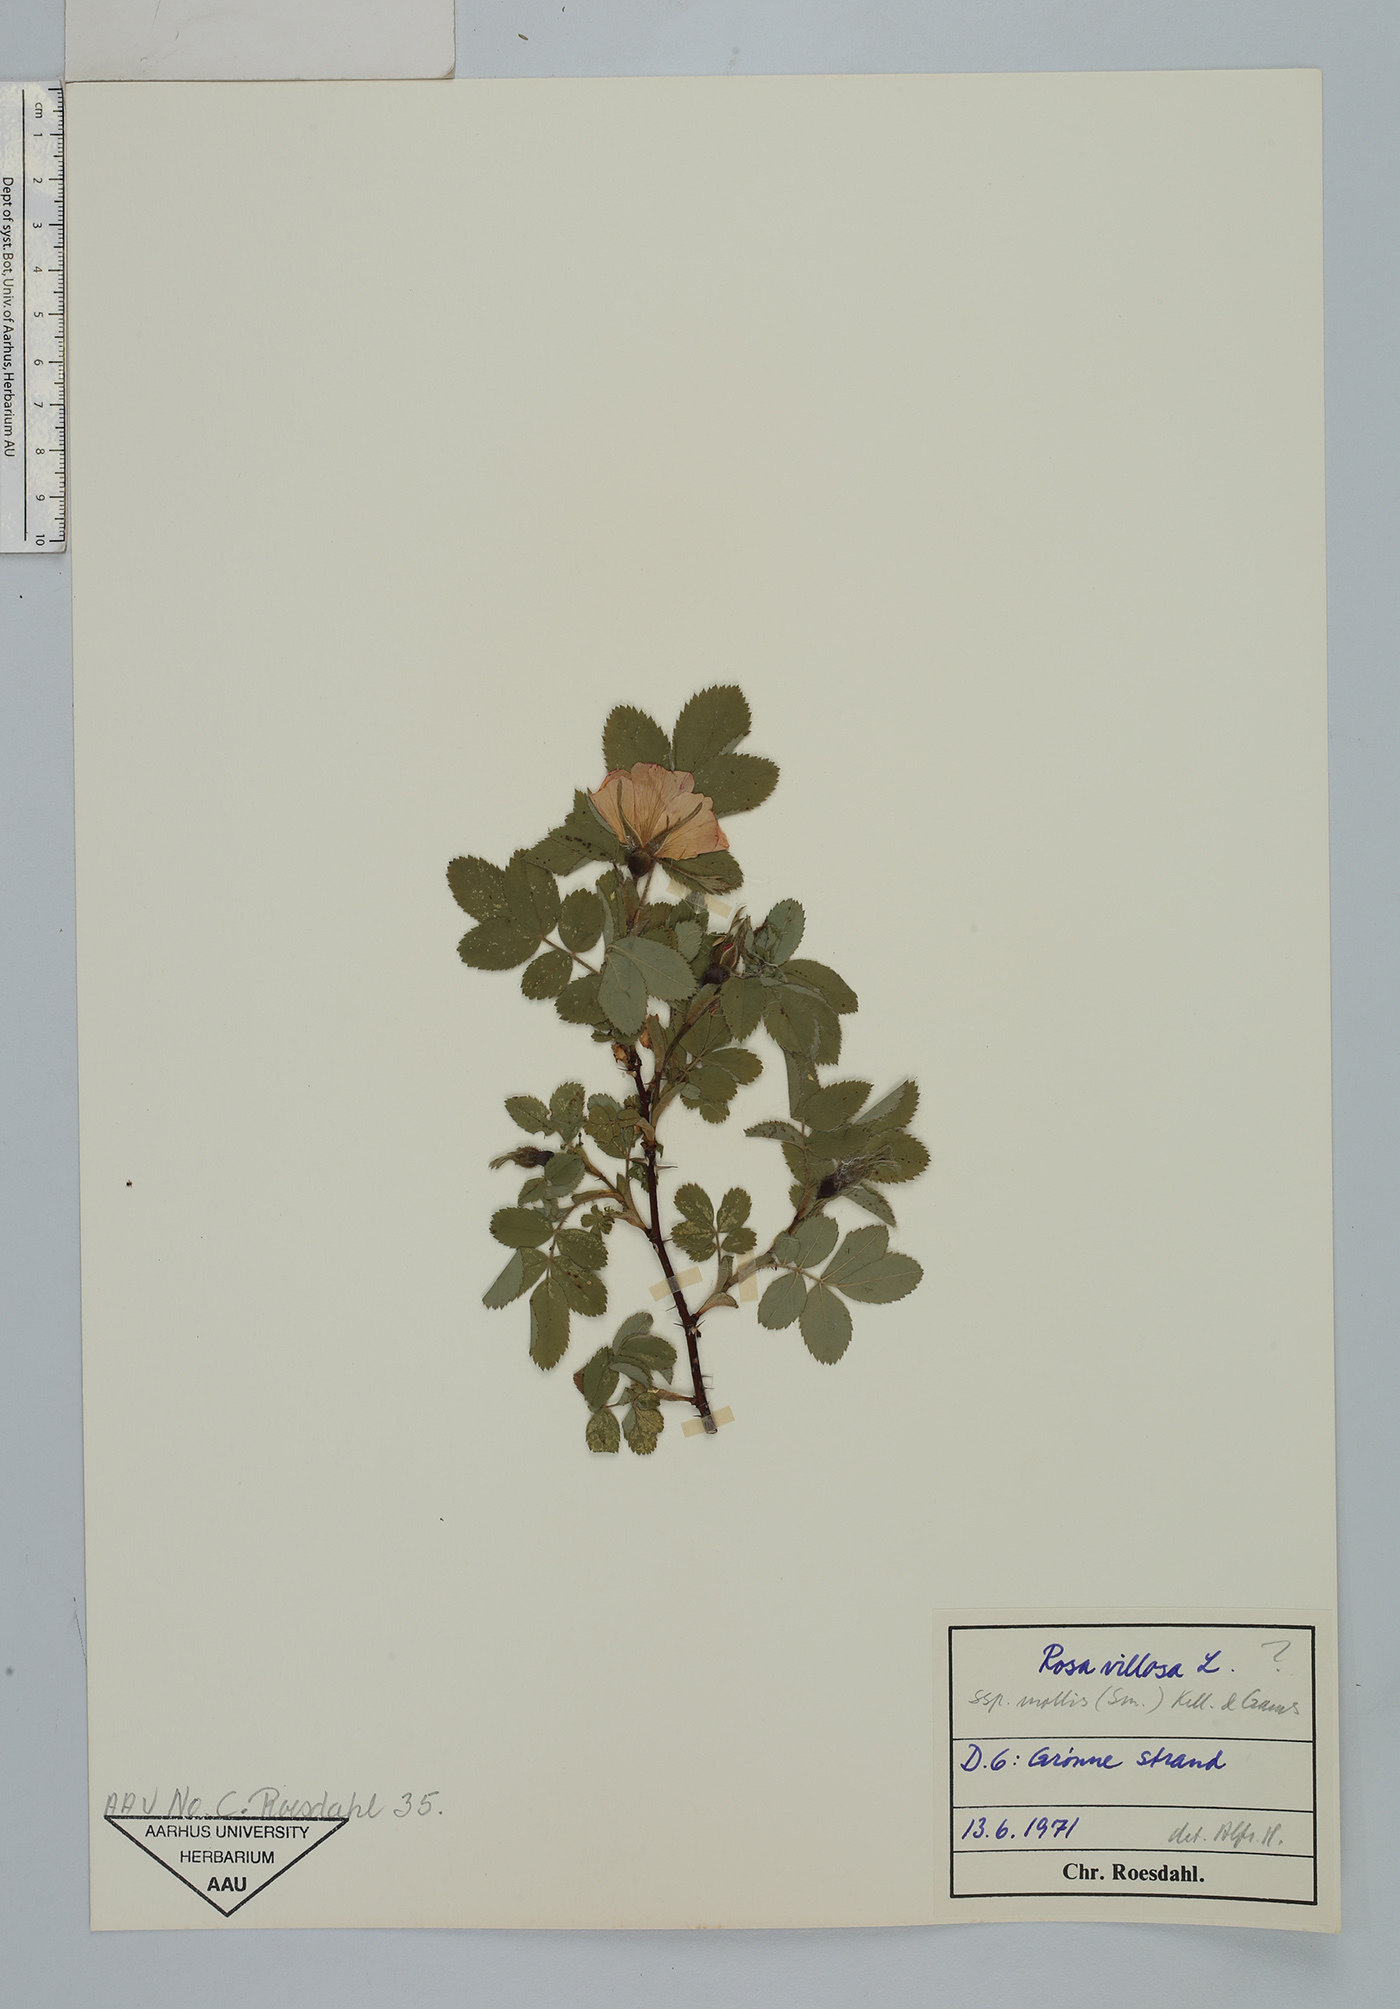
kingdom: Plantae
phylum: Tracheophyta
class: Magnoliopsida
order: Rosales
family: Rosaceae
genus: Rosa
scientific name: Rosa mollis
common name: Rose
